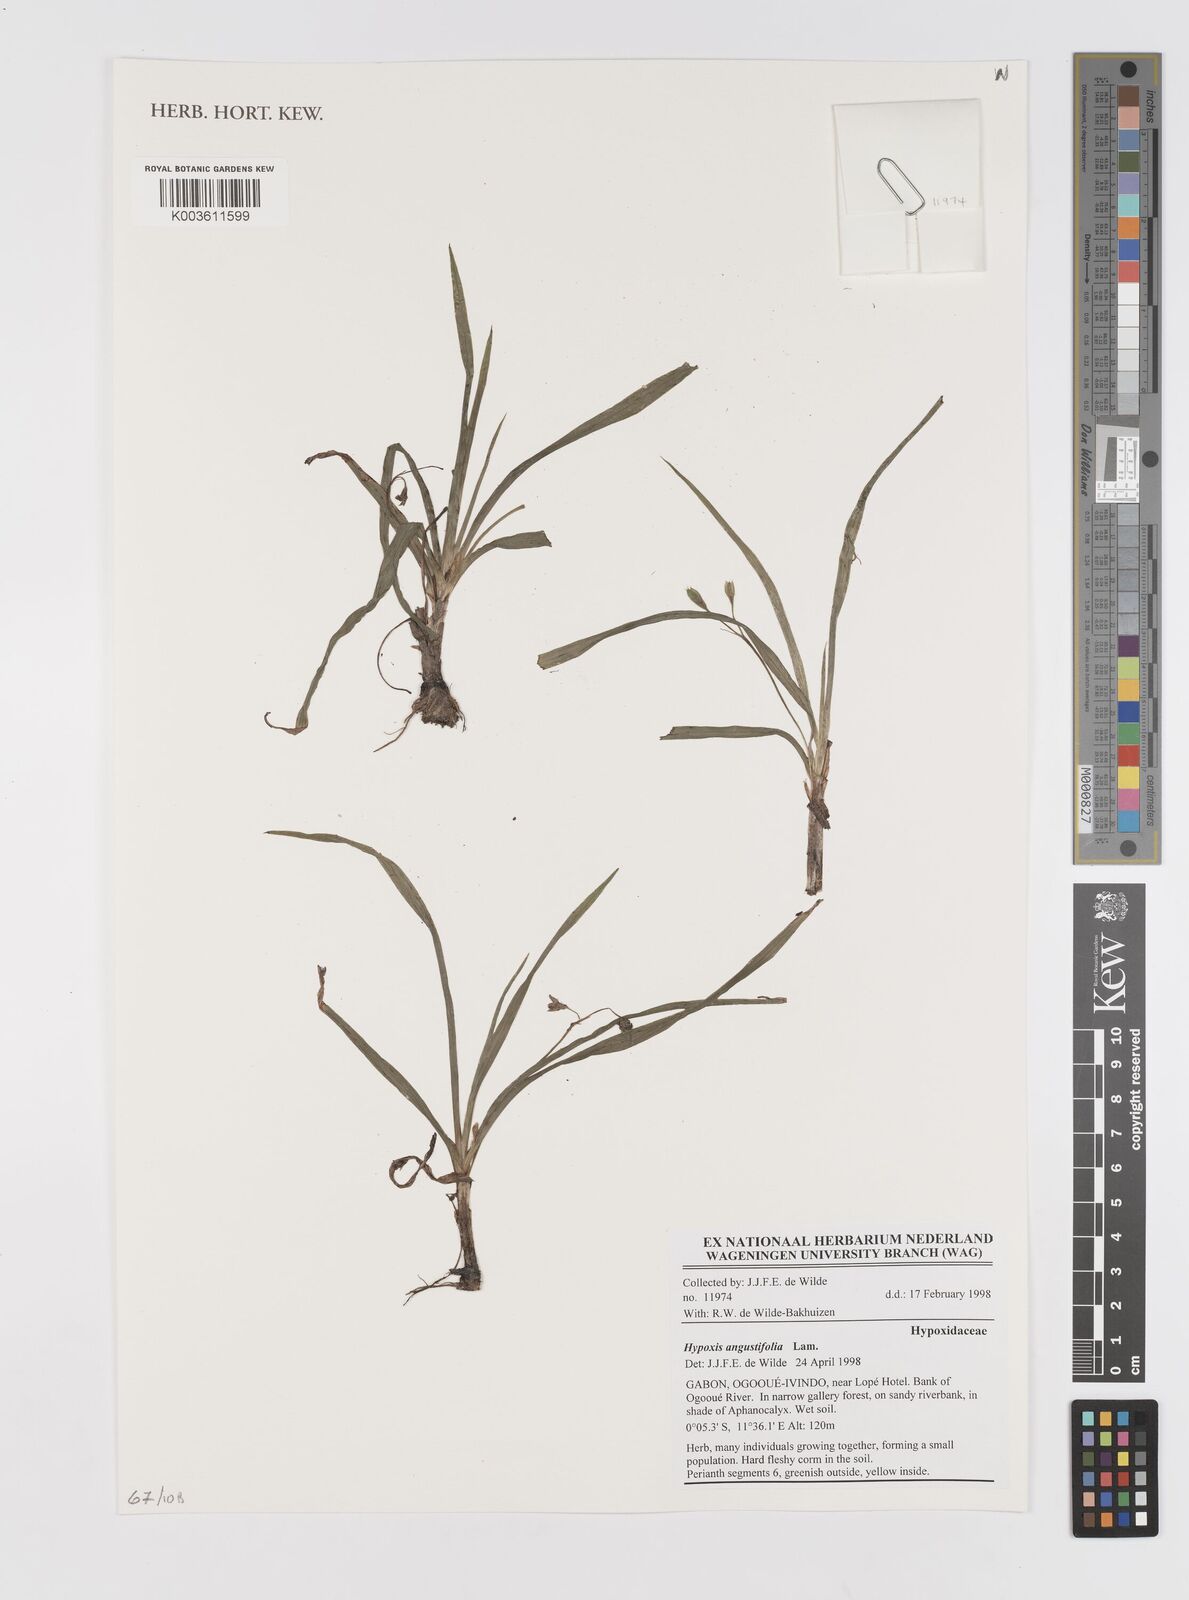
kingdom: Plantae
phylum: Tracheophyta
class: Liliopsida
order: Asparagales
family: Hypoxidaceae
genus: Hypoxis
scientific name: Hypoxis angustifolia
